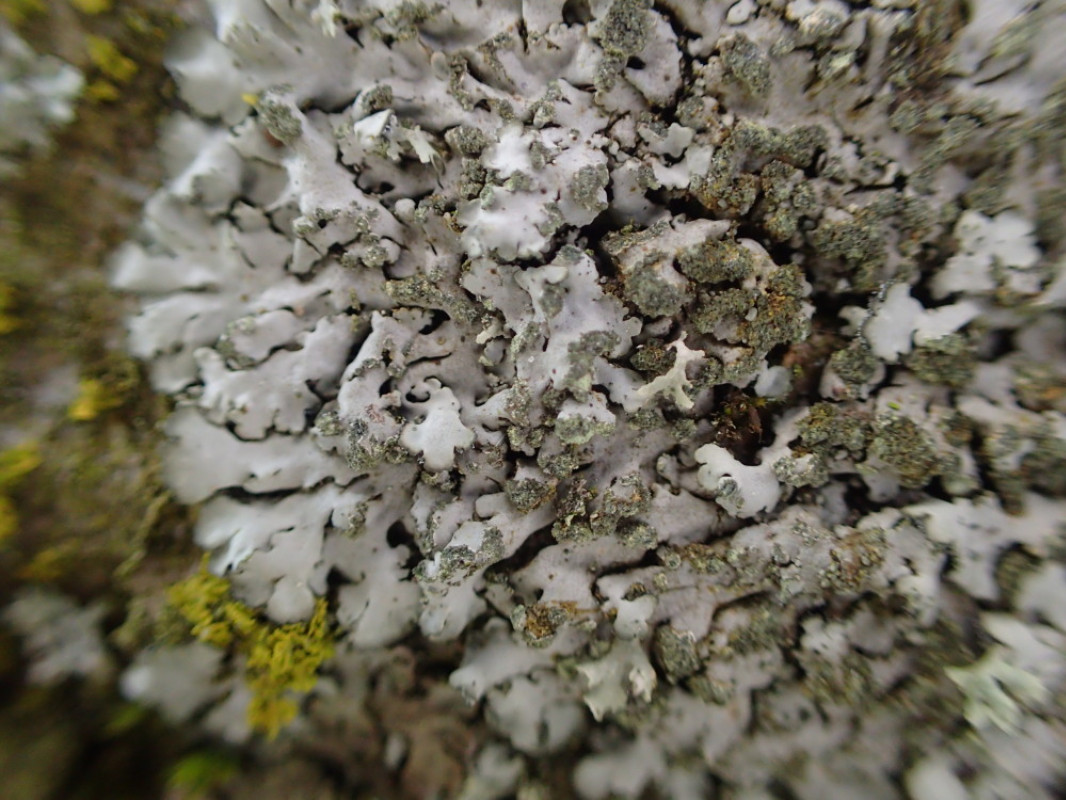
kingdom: Fungi
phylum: Ascomycota
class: Lecanoromycetes
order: Caliciales
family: Physciaceae
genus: Phaeophyscia
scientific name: Phaeophyscia orbicularis
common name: grågrøn rosetlav
